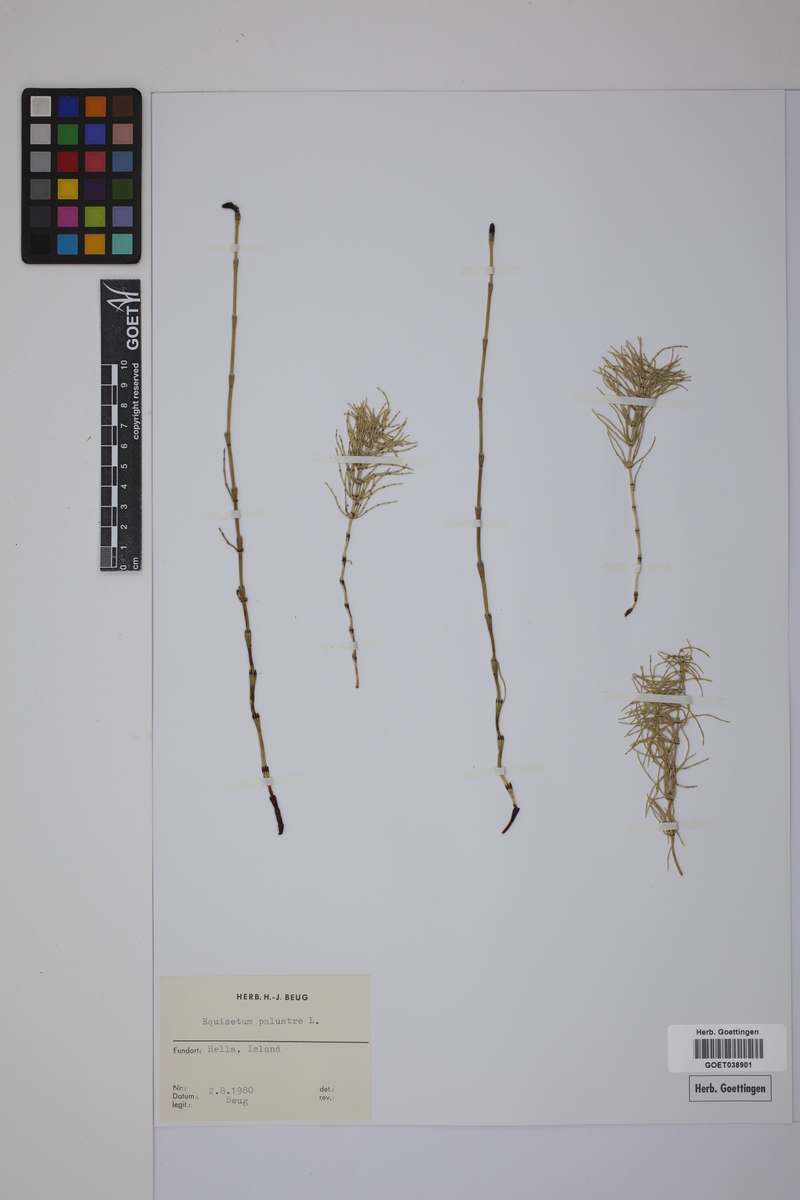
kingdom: Plantae
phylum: Tracheophyta
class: Polypodiopsida
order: Equisetales
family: Equisetaceae
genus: Equisetum
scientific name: Equisetum palustre
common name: Marsh horsetail
